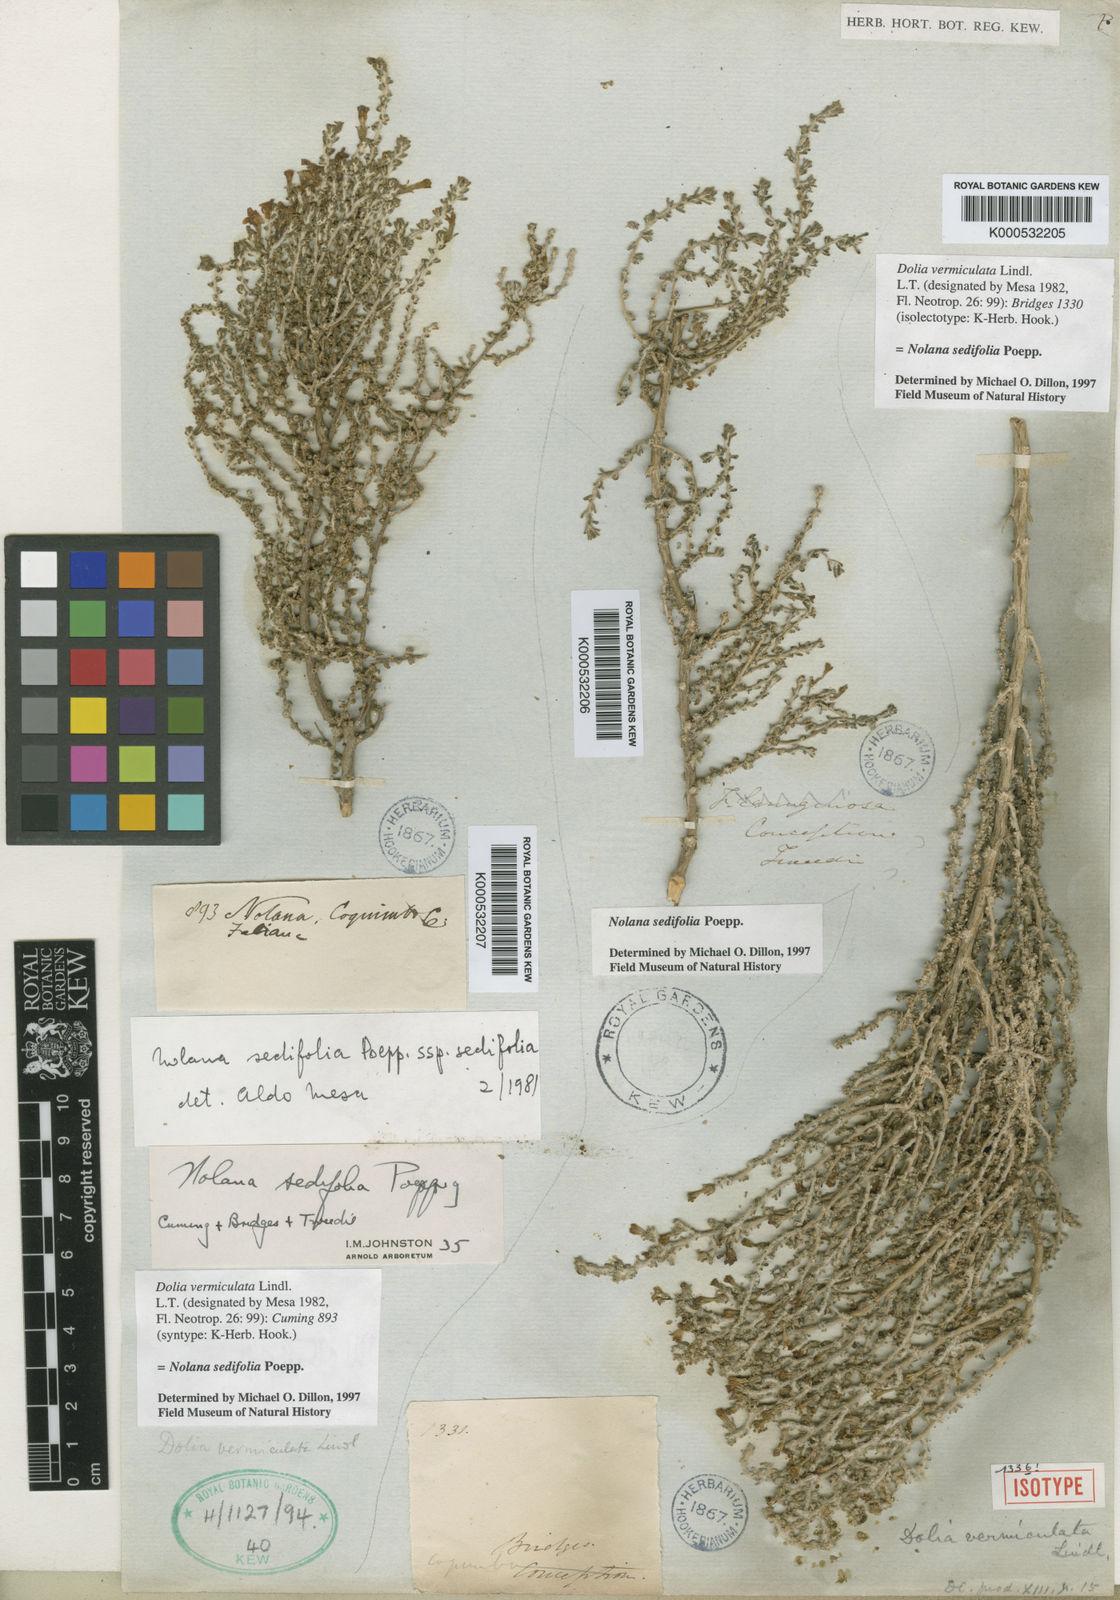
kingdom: Plantae
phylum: Tracheophyta
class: Magnoliopsida
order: Solanales
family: Solanaceae
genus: Nolana
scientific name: Nolana sedifolia
